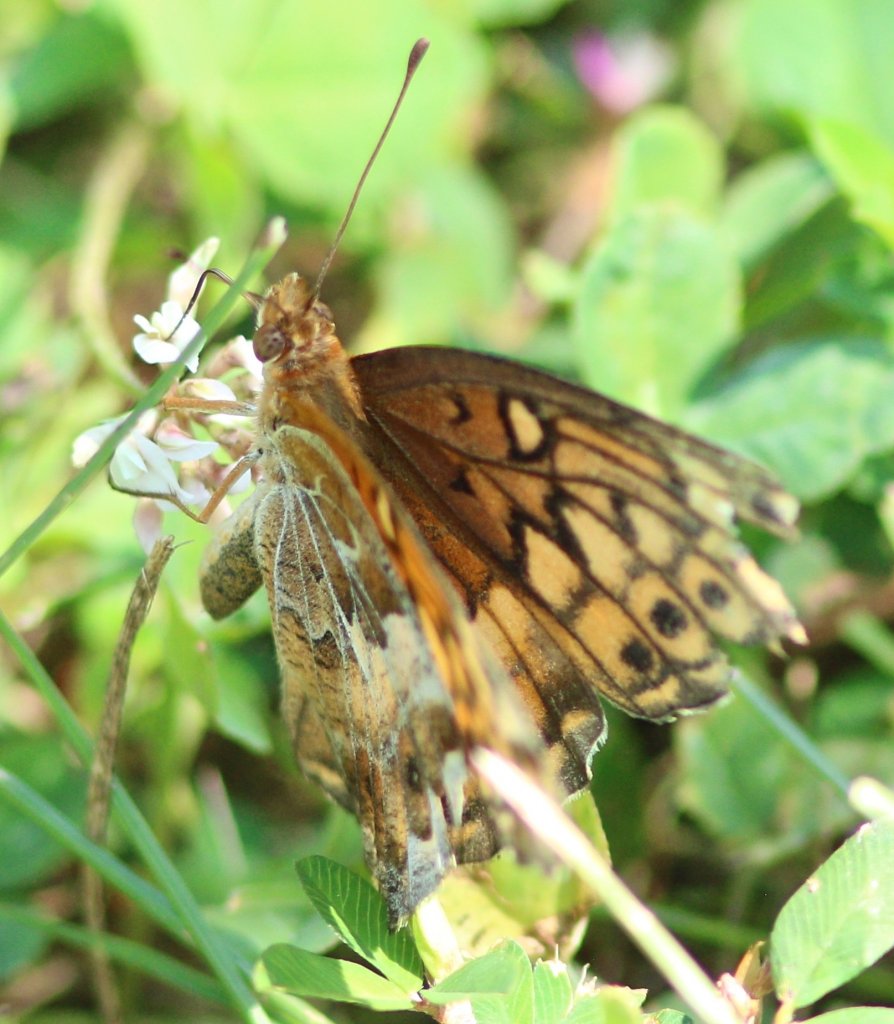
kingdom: Animalia
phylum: Arthropoda
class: Insecta
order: Lepidoptera
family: Nymphalidae
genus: Euptoieta
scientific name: Euptoieta claudia
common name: Variegated Fritillary
